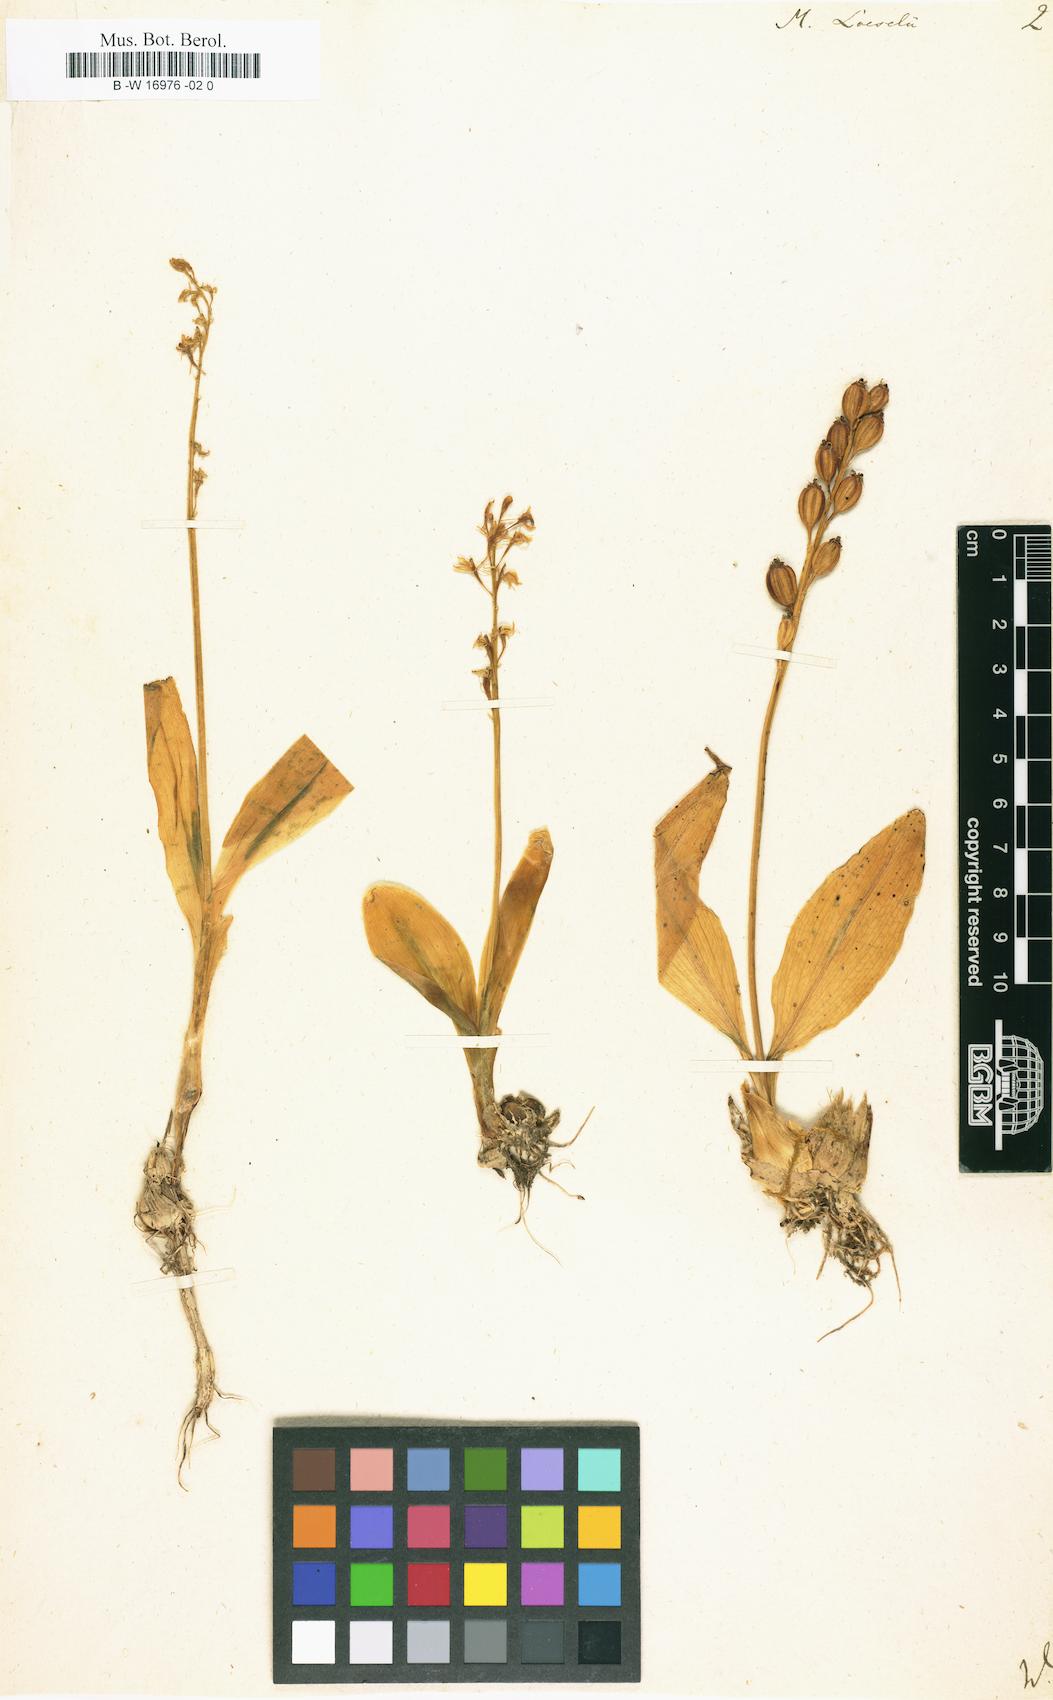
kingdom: Animalia
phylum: Arthropoda
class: Insecta
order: Coleoptera
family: Curculionidae
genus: Liparis
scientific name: Liparis loeselii
